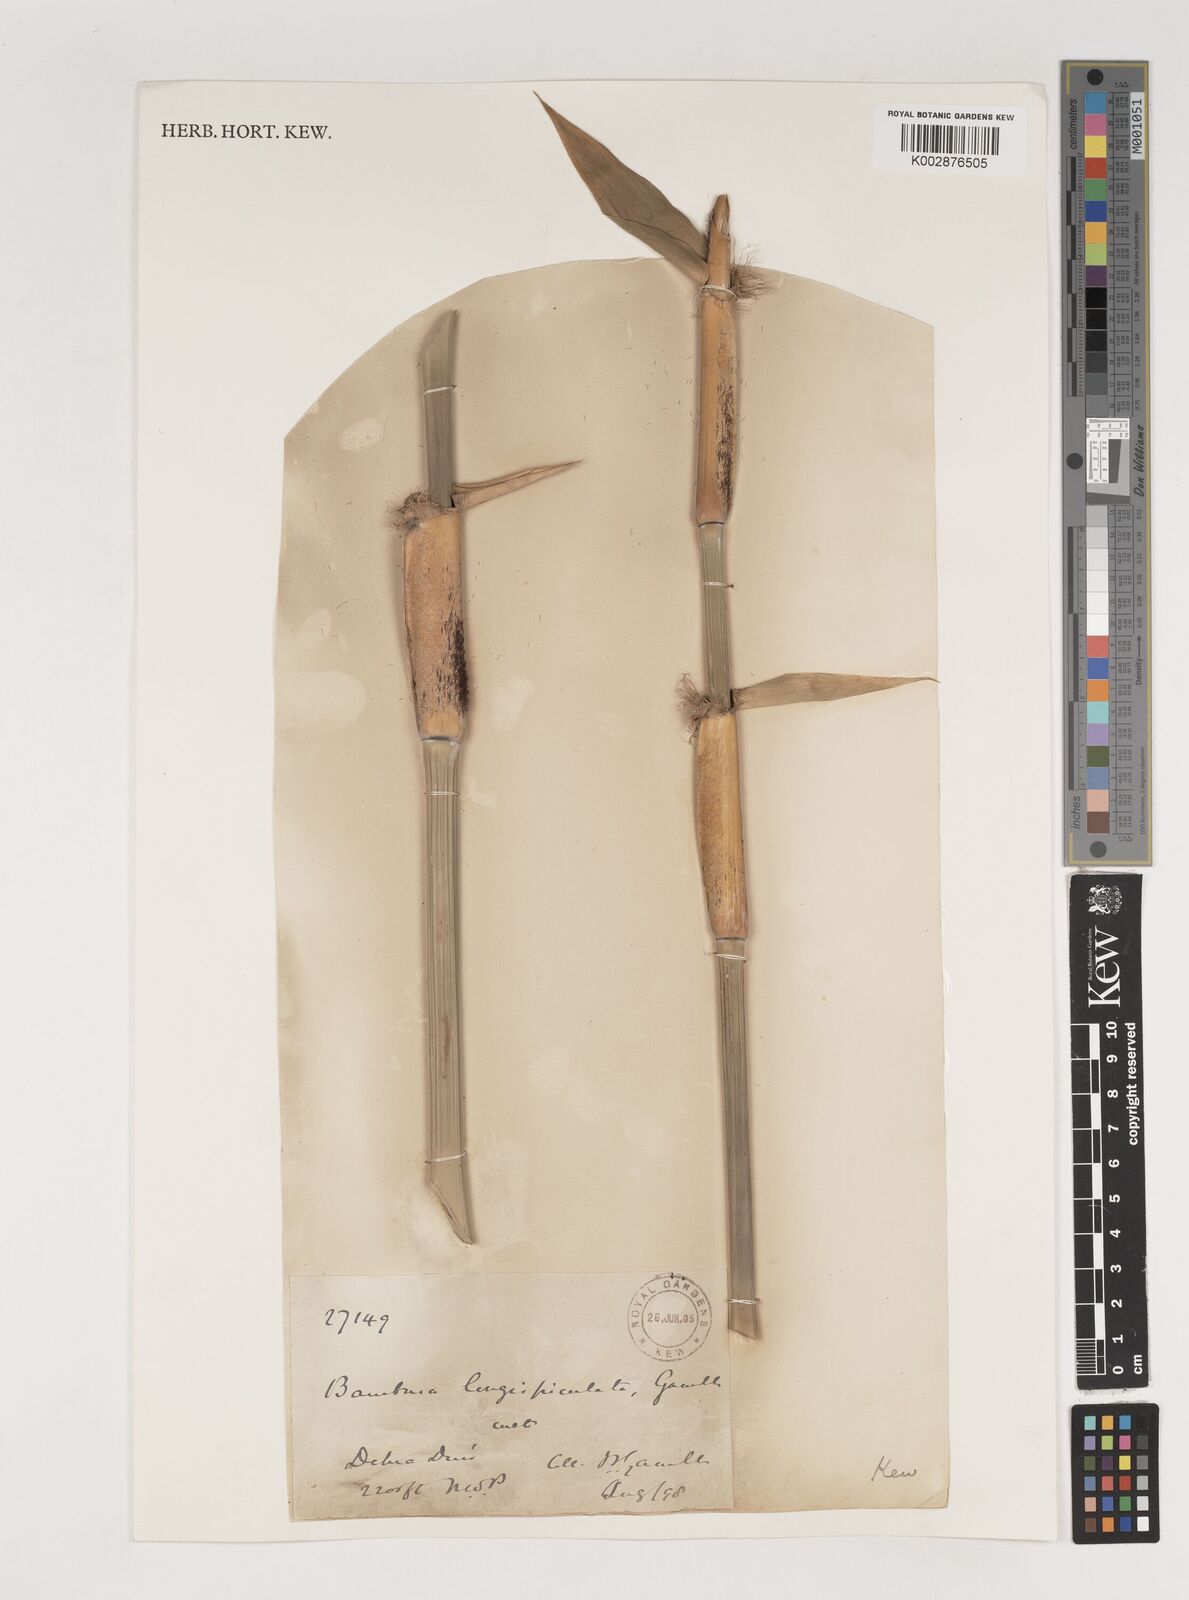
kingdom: Plantae
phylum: Tracheophyta
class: Liliopsida
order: Poales
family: Poaceae
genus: Bambusa
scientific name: Bambusa longispiculata
